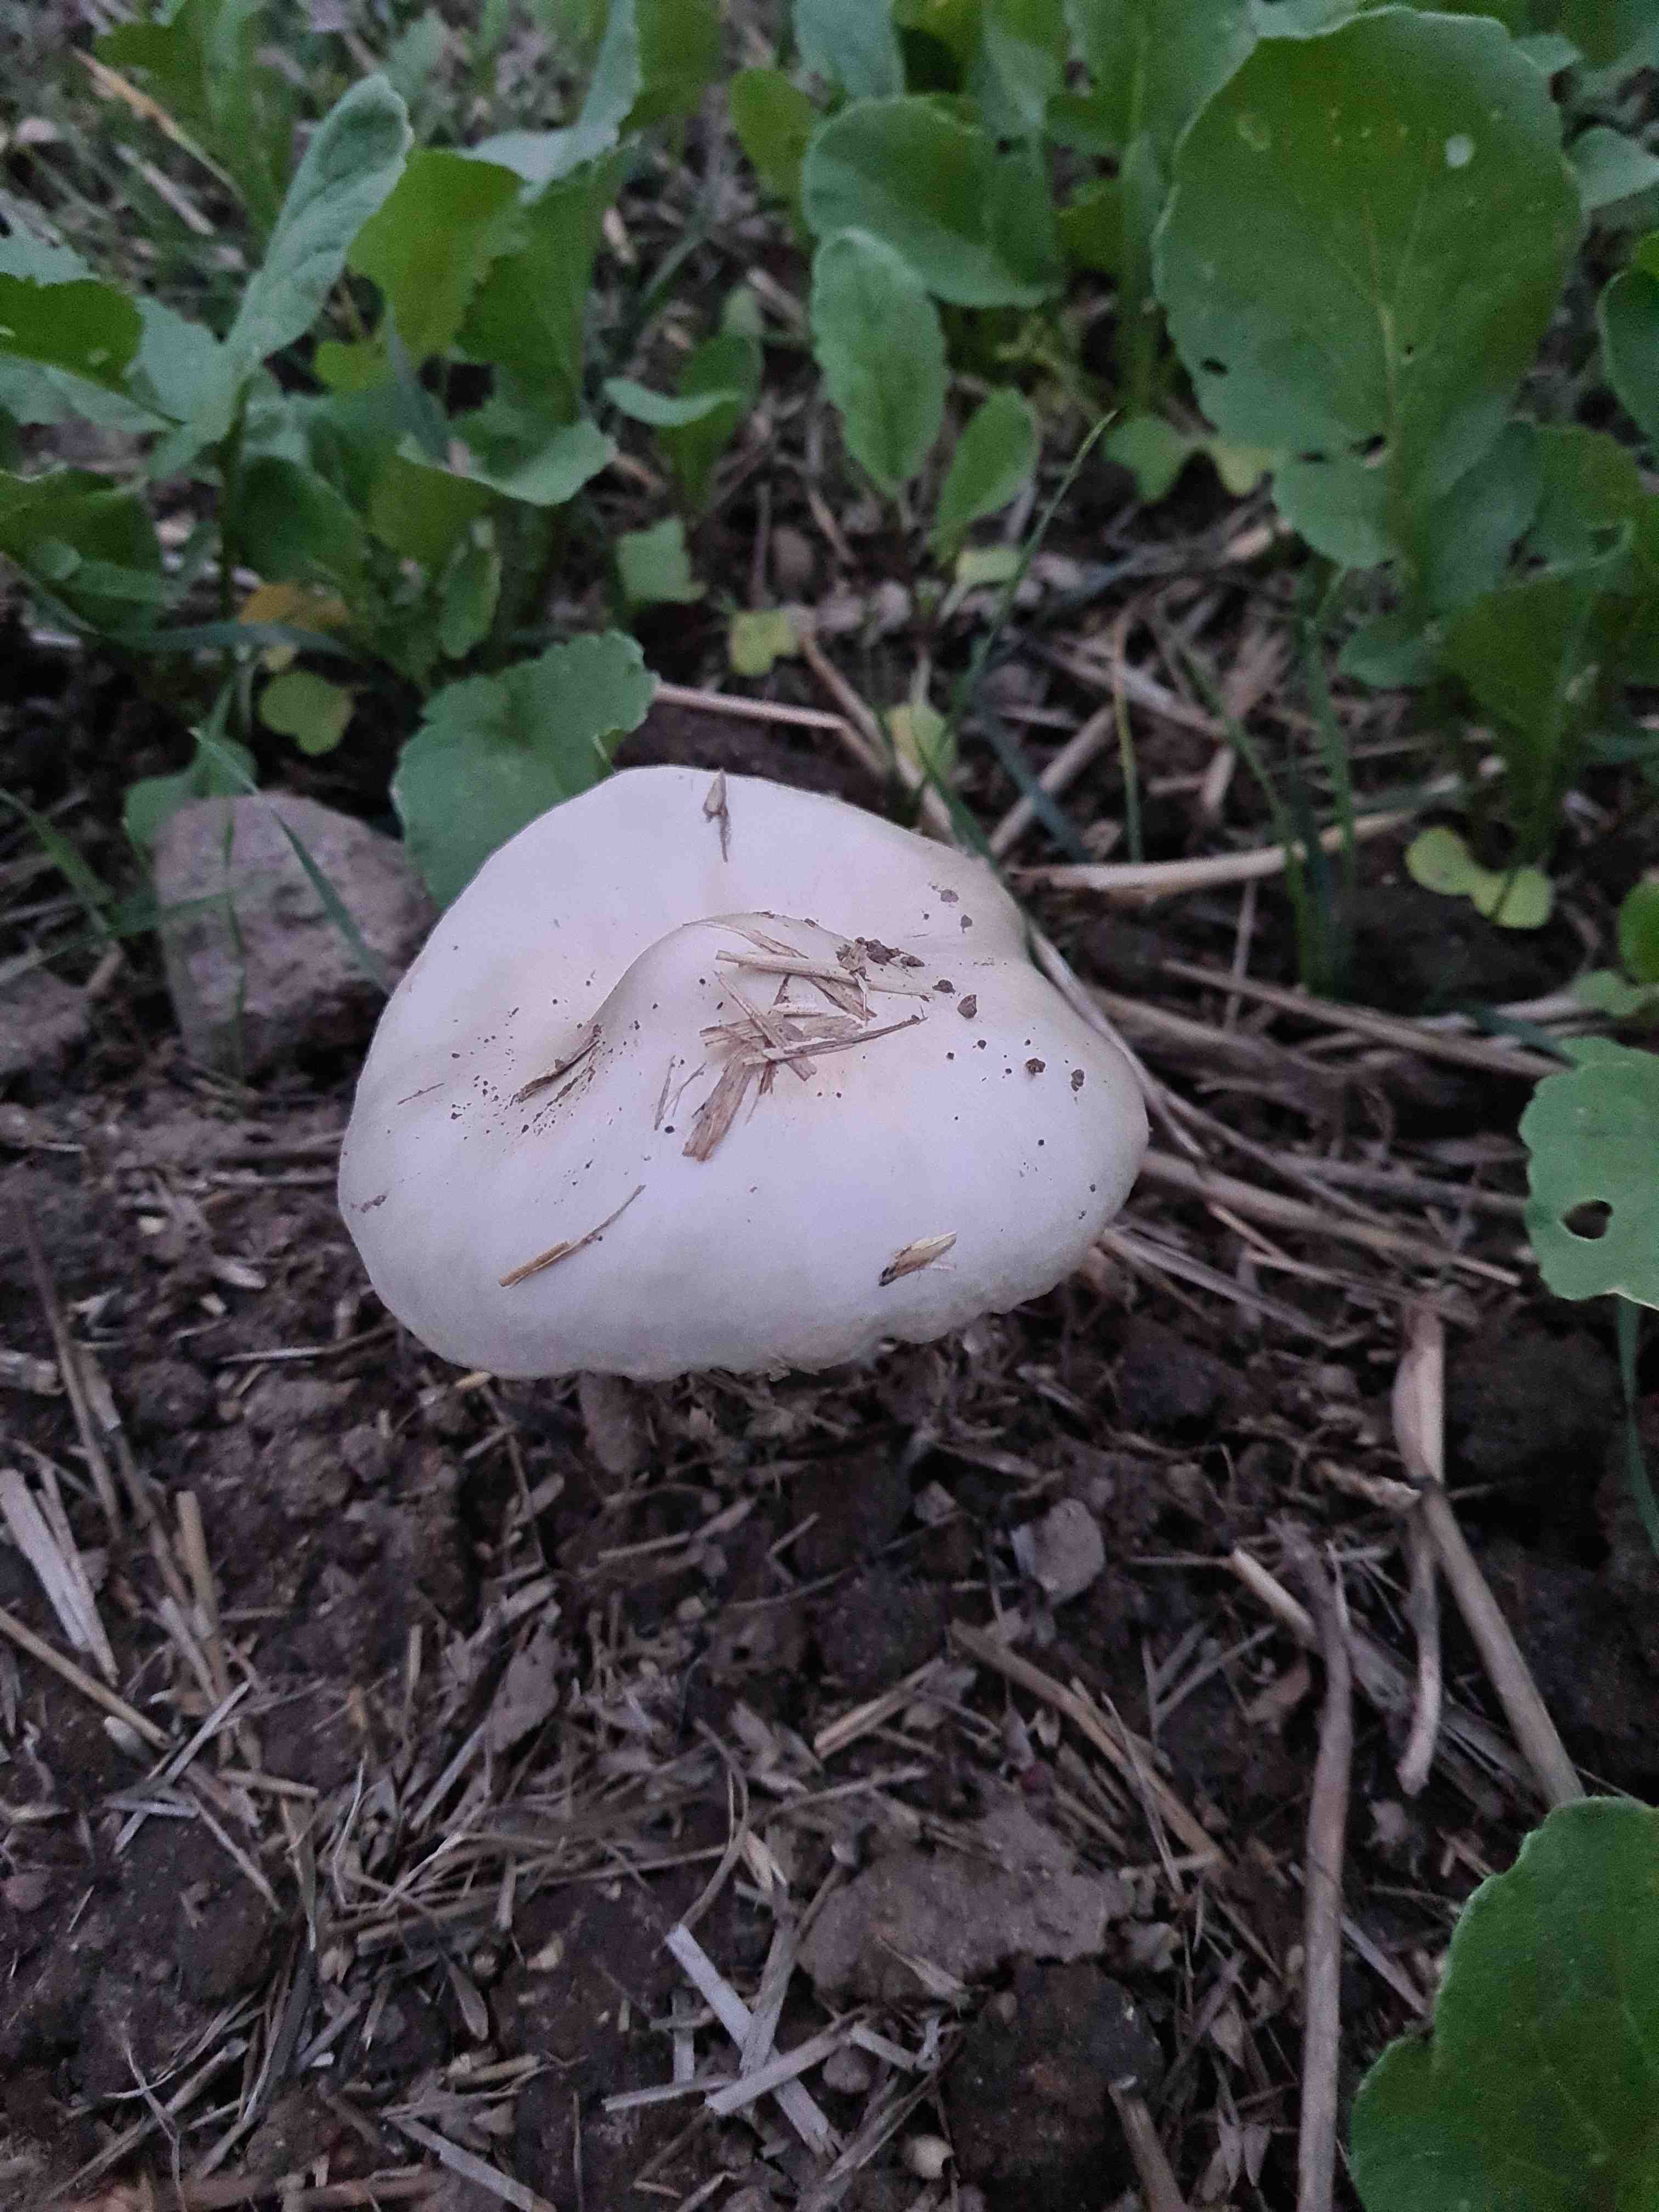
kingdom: Fungi
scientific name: Fungi
